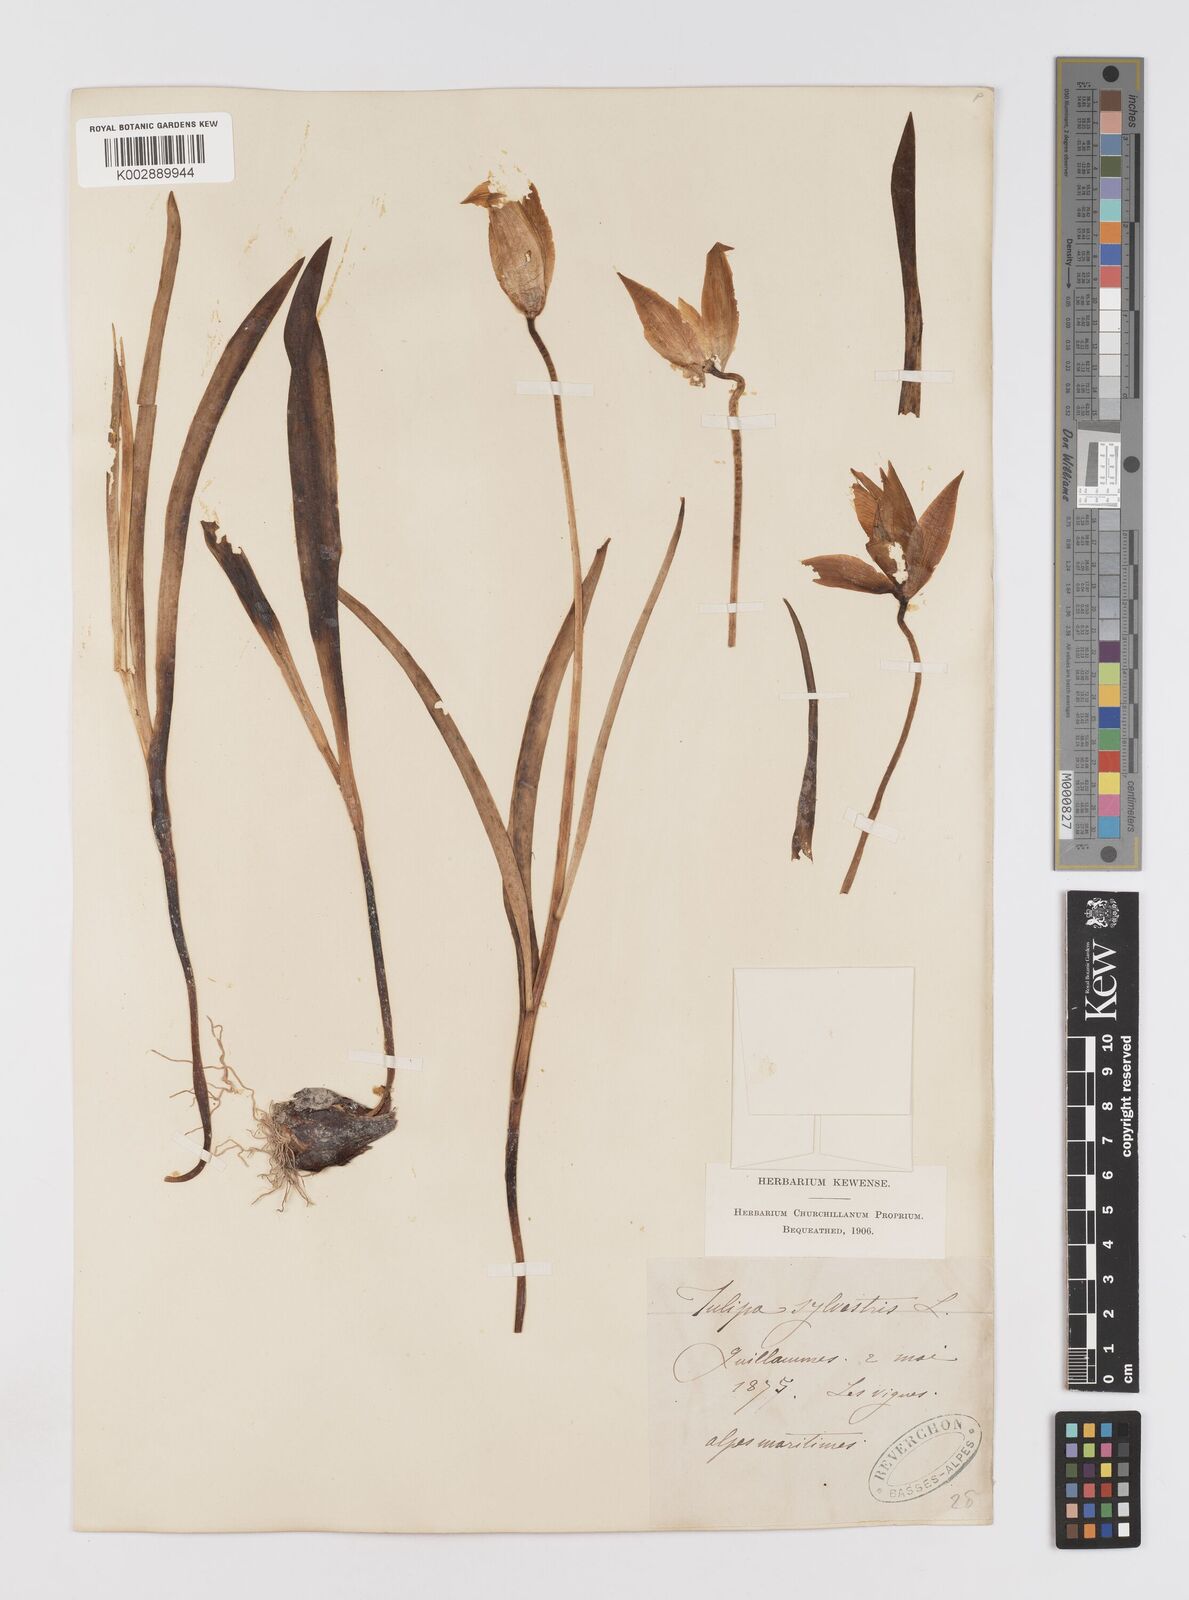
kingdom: Plantae
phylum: Tracheophyta
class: Liliopsida
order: Liliales
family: Liliaceae
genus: Tulipa
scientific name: Tulipa sylvestris
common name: Wild tulip
